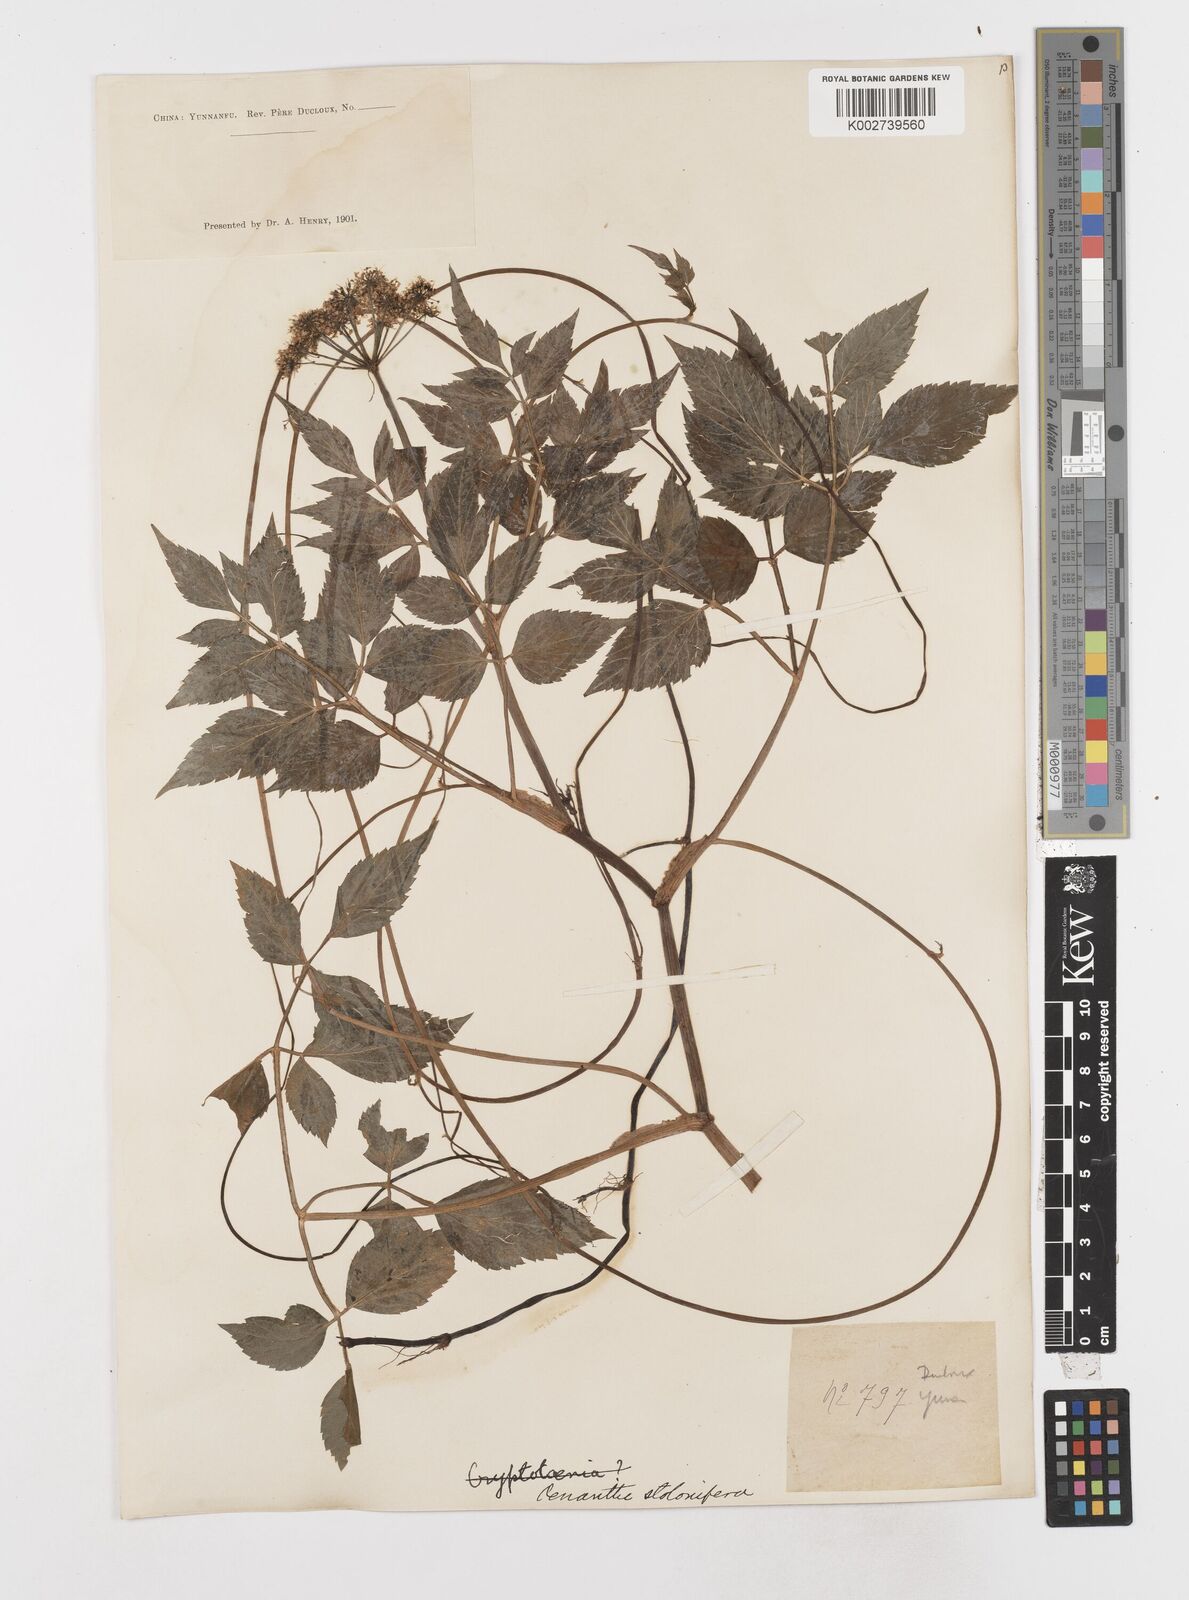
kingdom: Plantae
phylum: Tracheophyta
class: Magnoliopsida
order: Apiales
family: Apiaceae
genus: Oenanthe
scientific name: Oenanthe javanica
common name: Java water-dropwort
